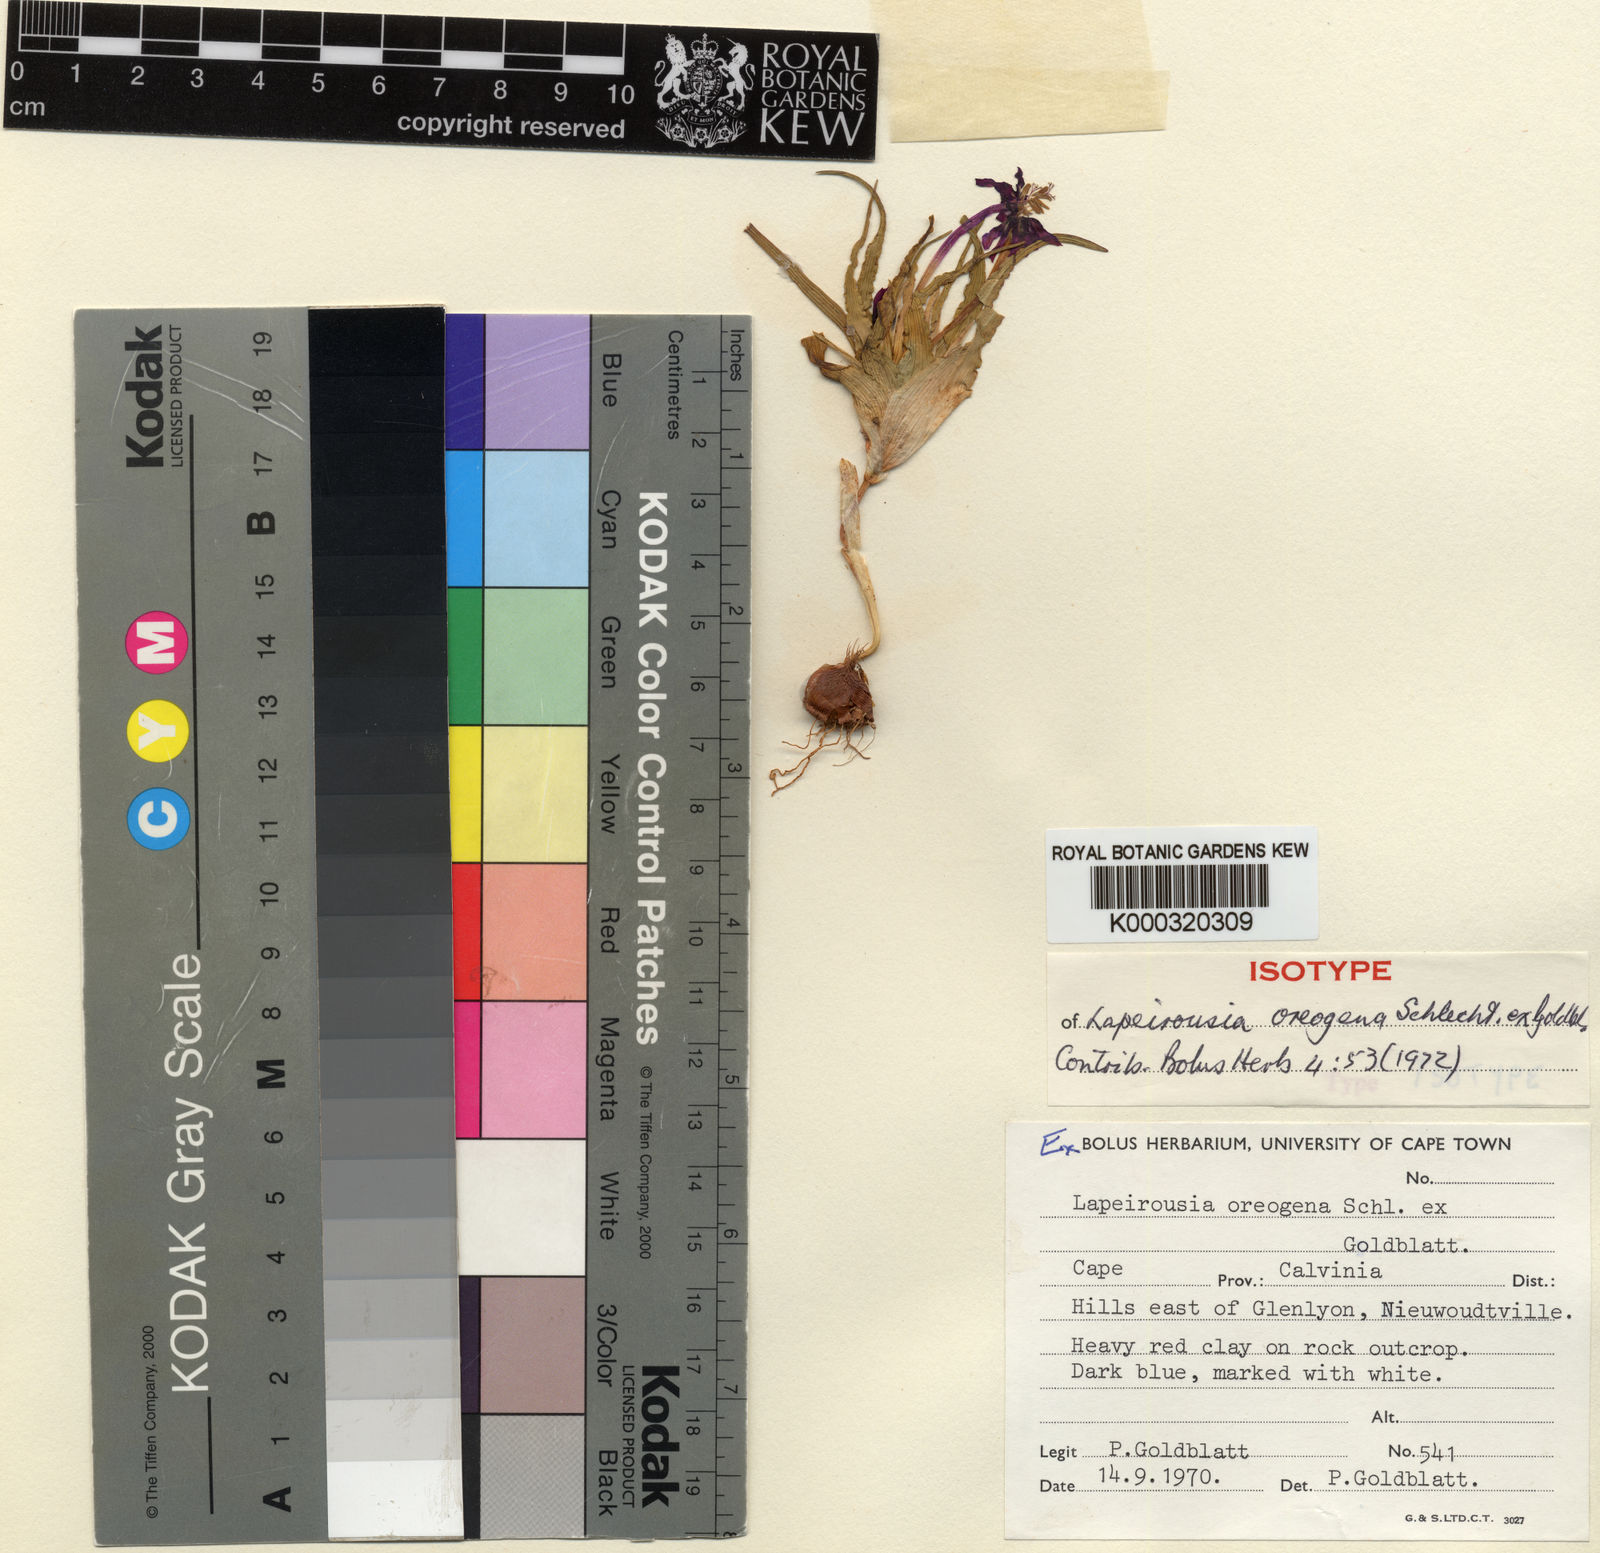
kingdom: Plantae
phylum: Tracheophyta
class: Liliopsida
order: Asparagales
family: Iridaceae
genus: Lapeirousia
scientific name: Lapeirousia oreogena
